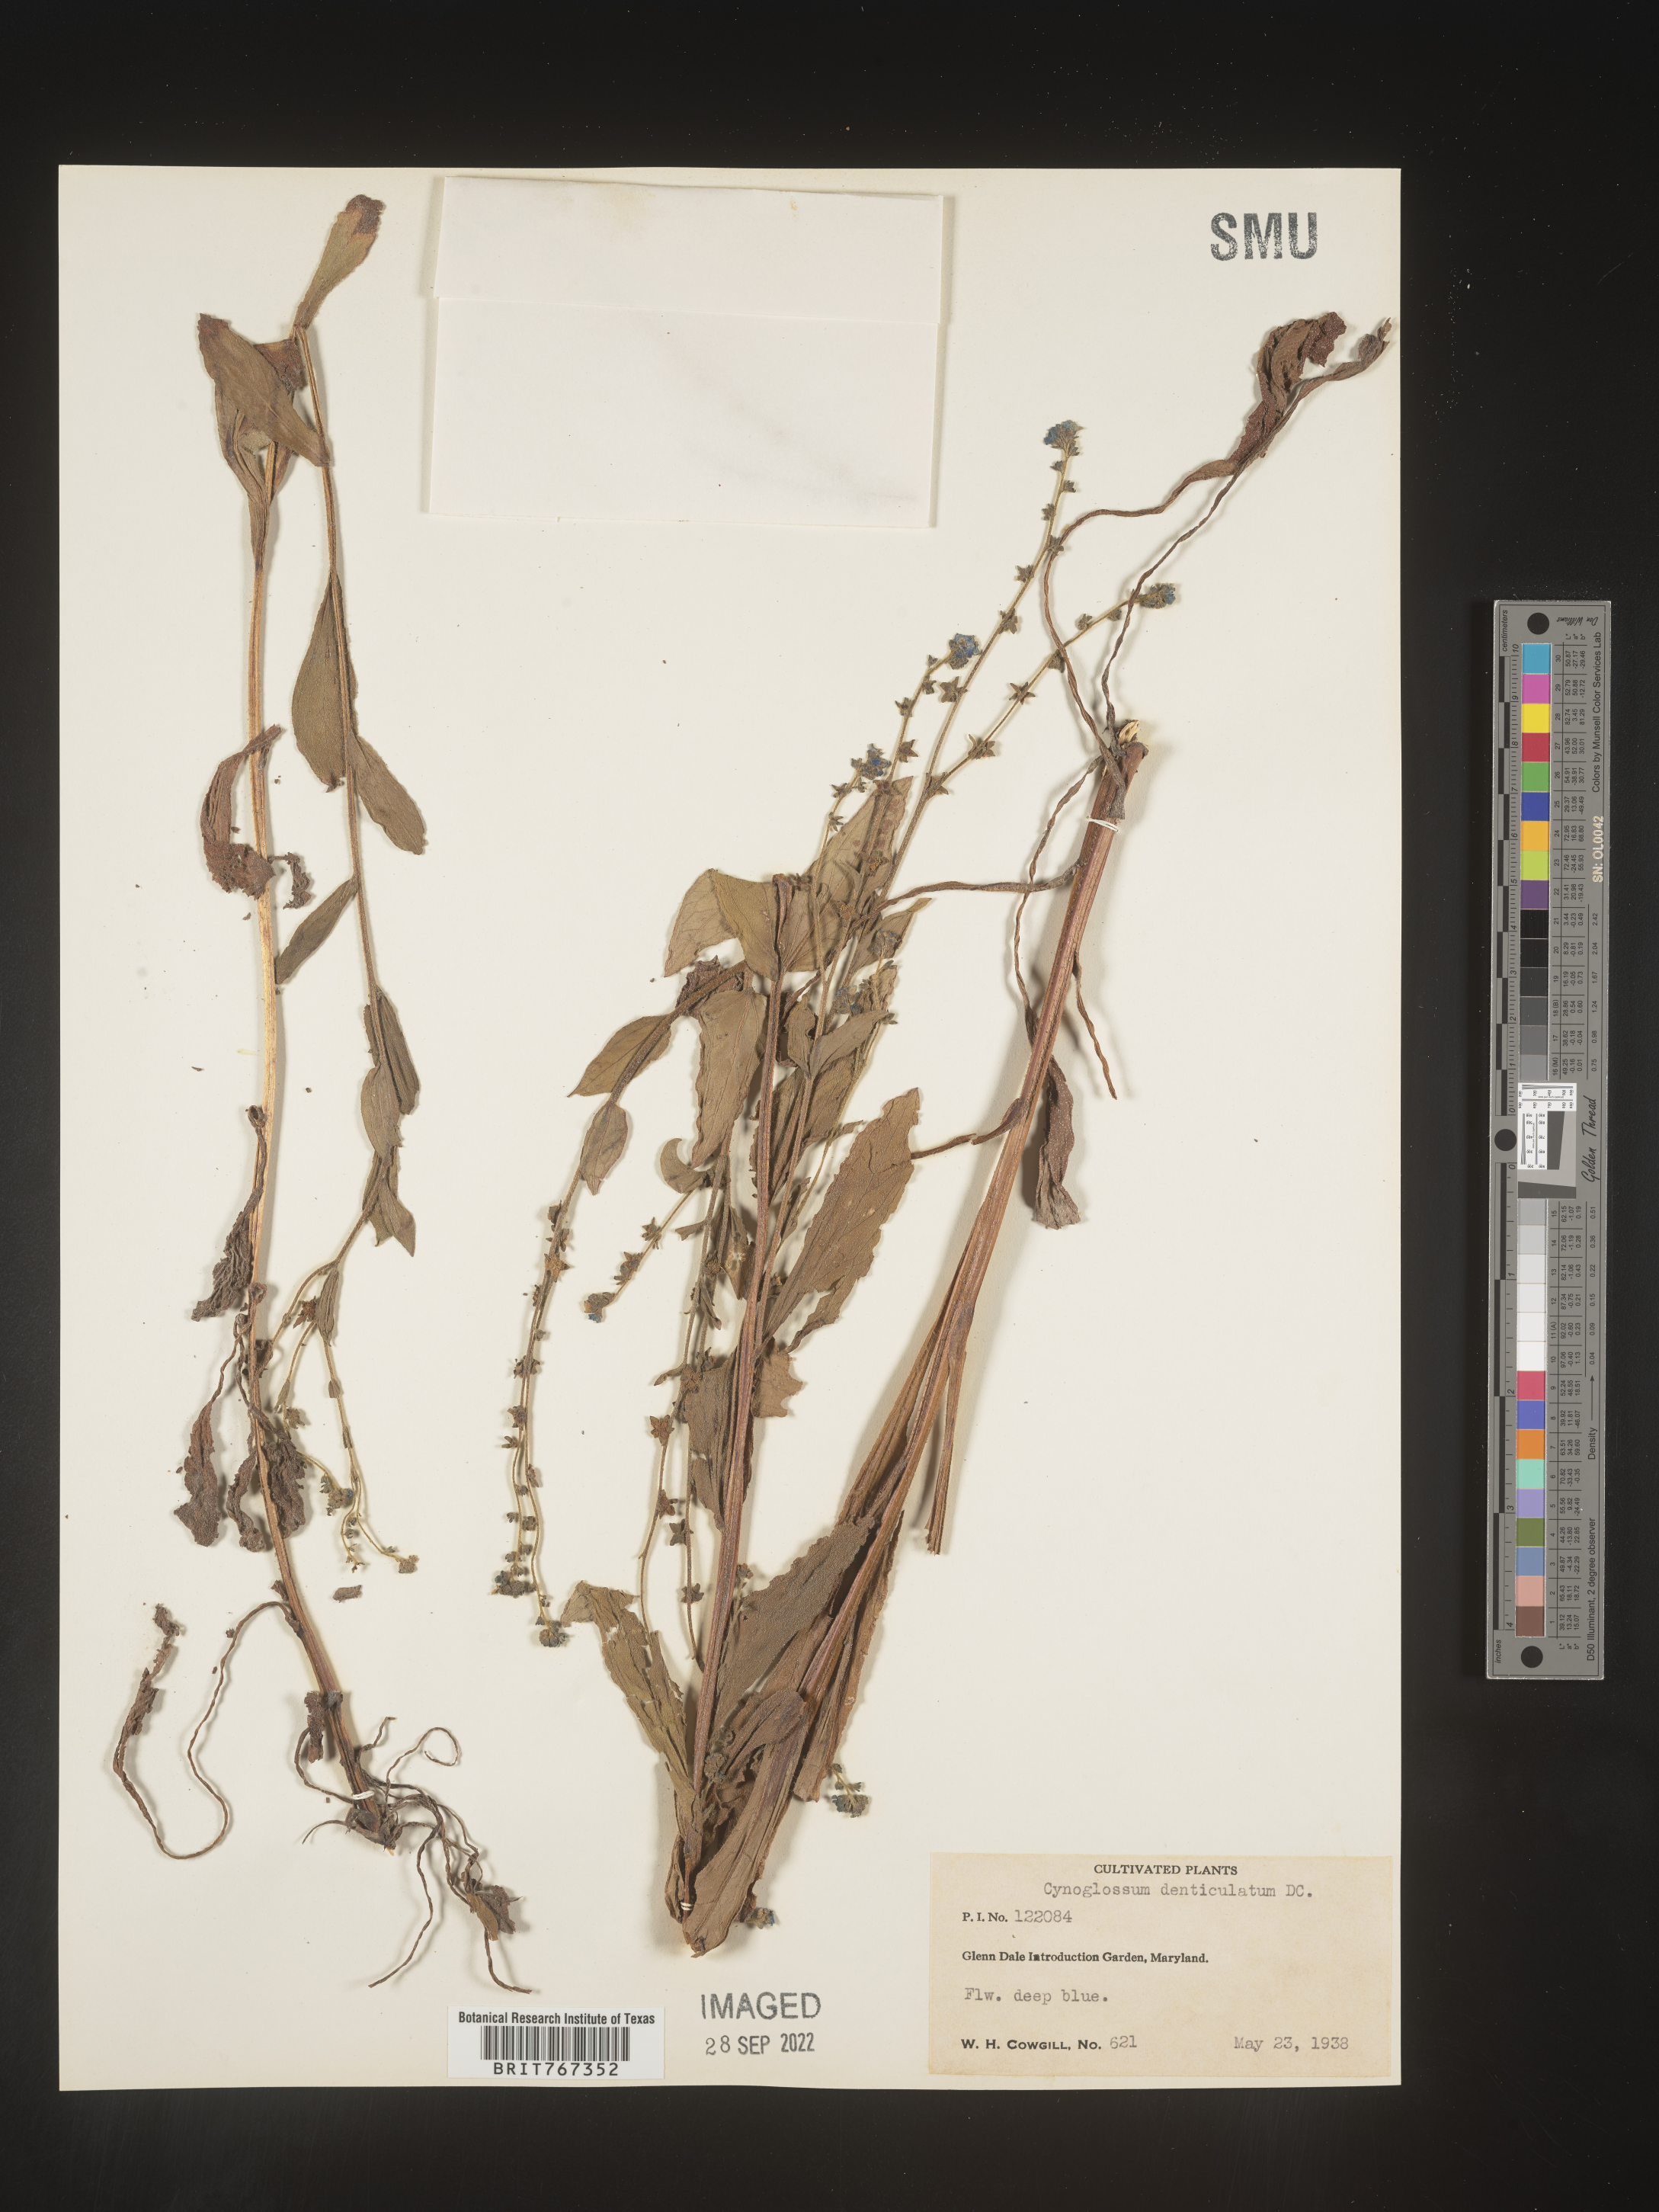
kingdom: Plantae
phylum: Tracheophyta
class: Magnoliopsida
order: Boraginales
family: Boraginaceae
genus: Cynoglossum
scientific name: Cynoglossum
